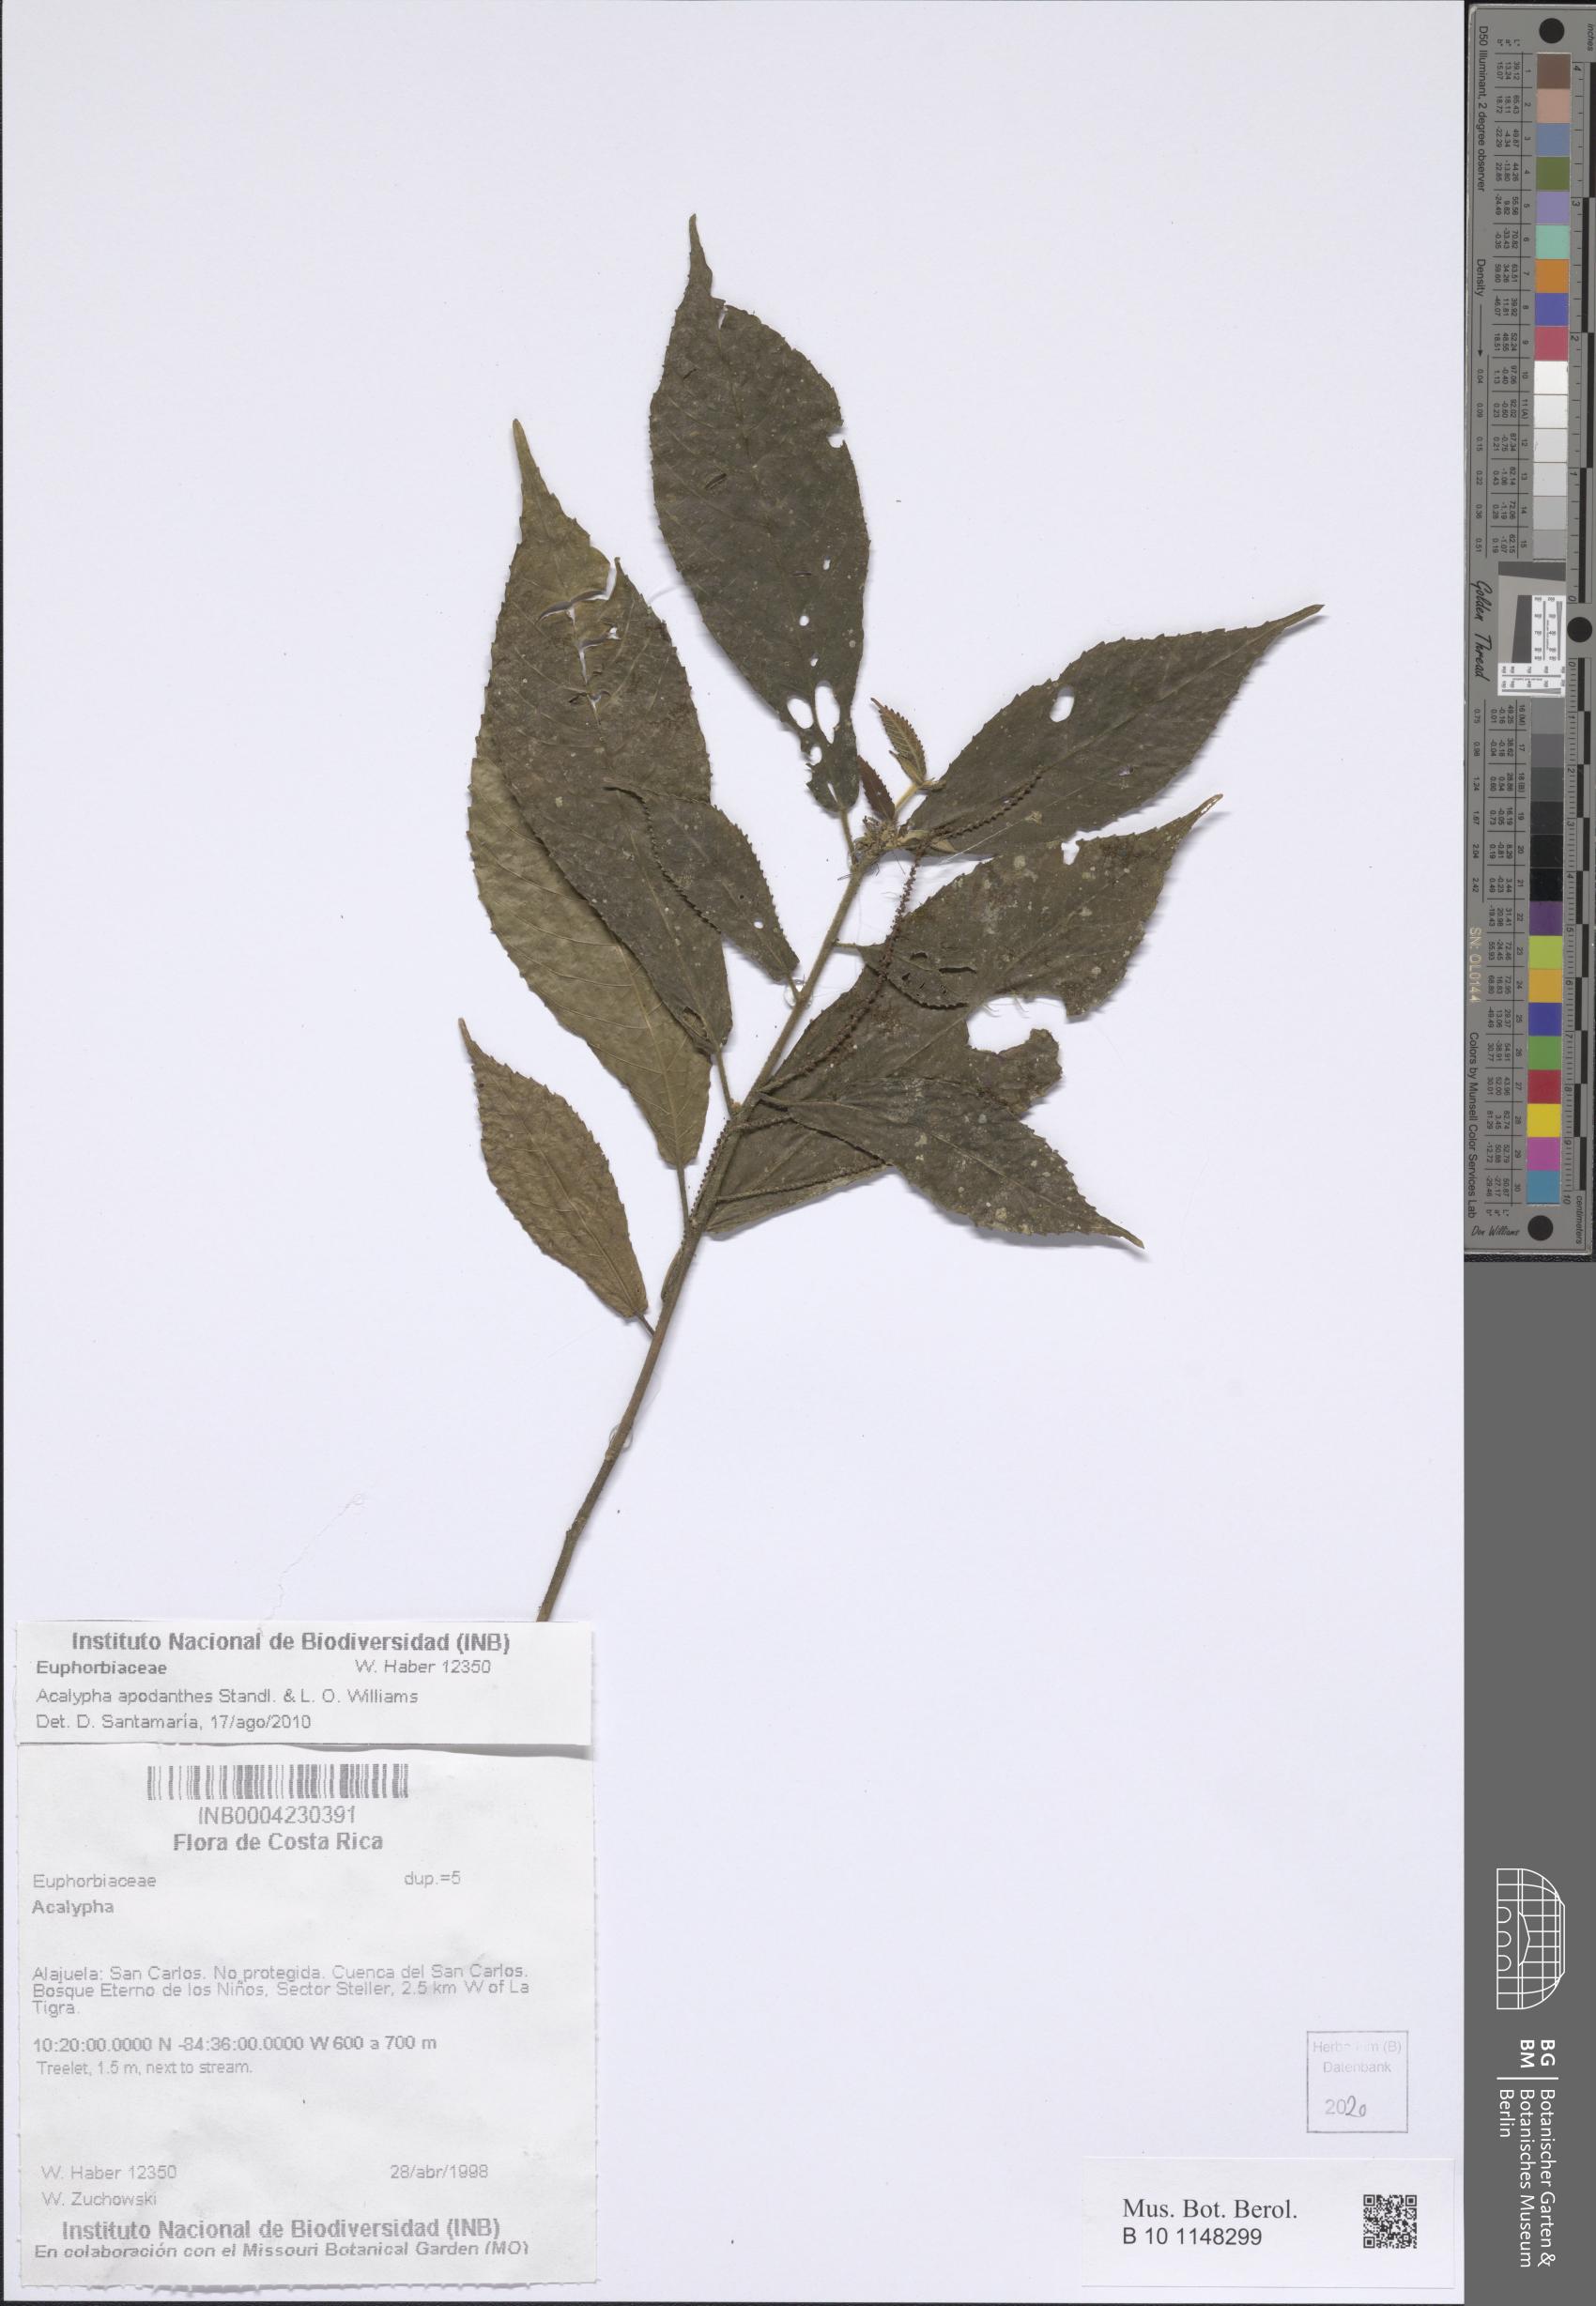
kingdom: Plantae
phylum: Tracheophyta
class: Magnoliopsida
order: Malpighiales
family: Euphorbiaceae
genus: Acalypha
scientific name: Acalypha apodanthes
